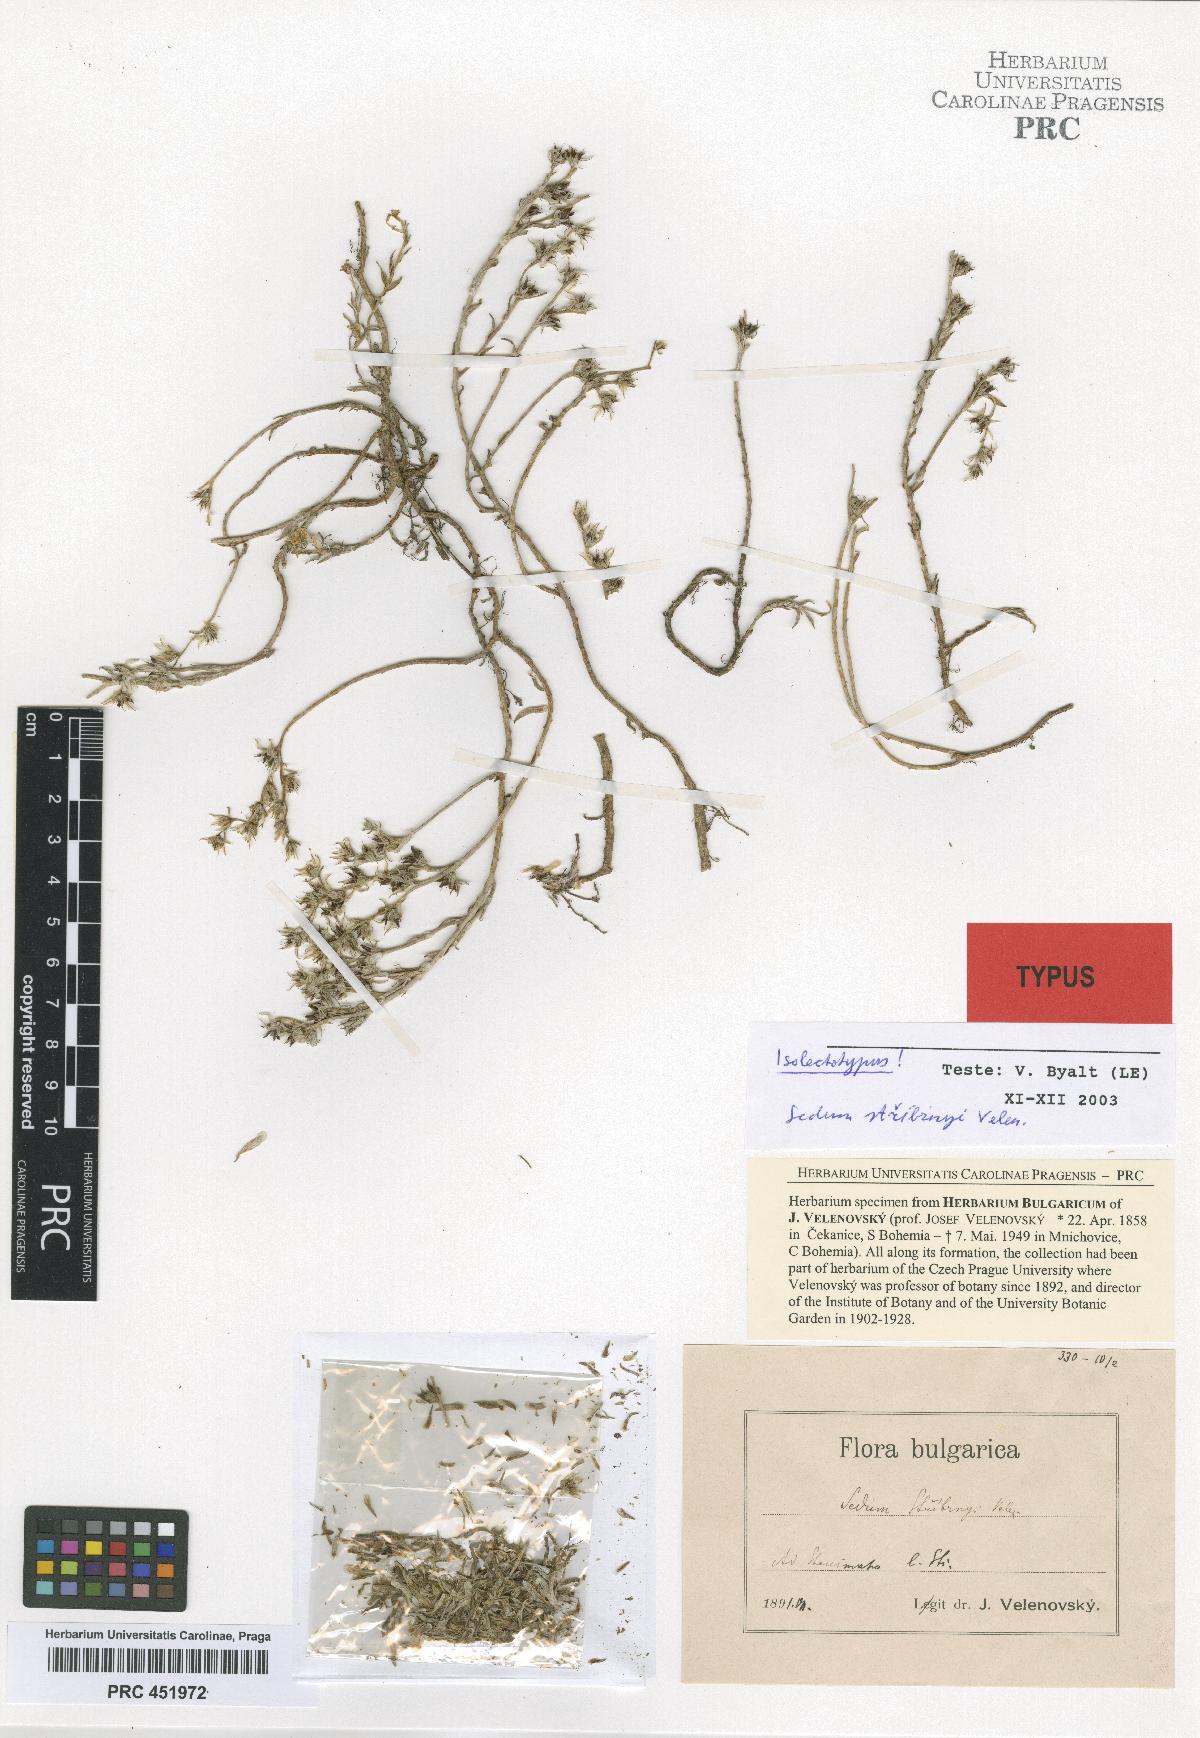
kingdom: Plantae
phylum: Tracheophyta
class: Magnoliopsida
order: Saxifragales
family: Crassulaceae
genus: Sedum
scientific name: Sedum urvillei
